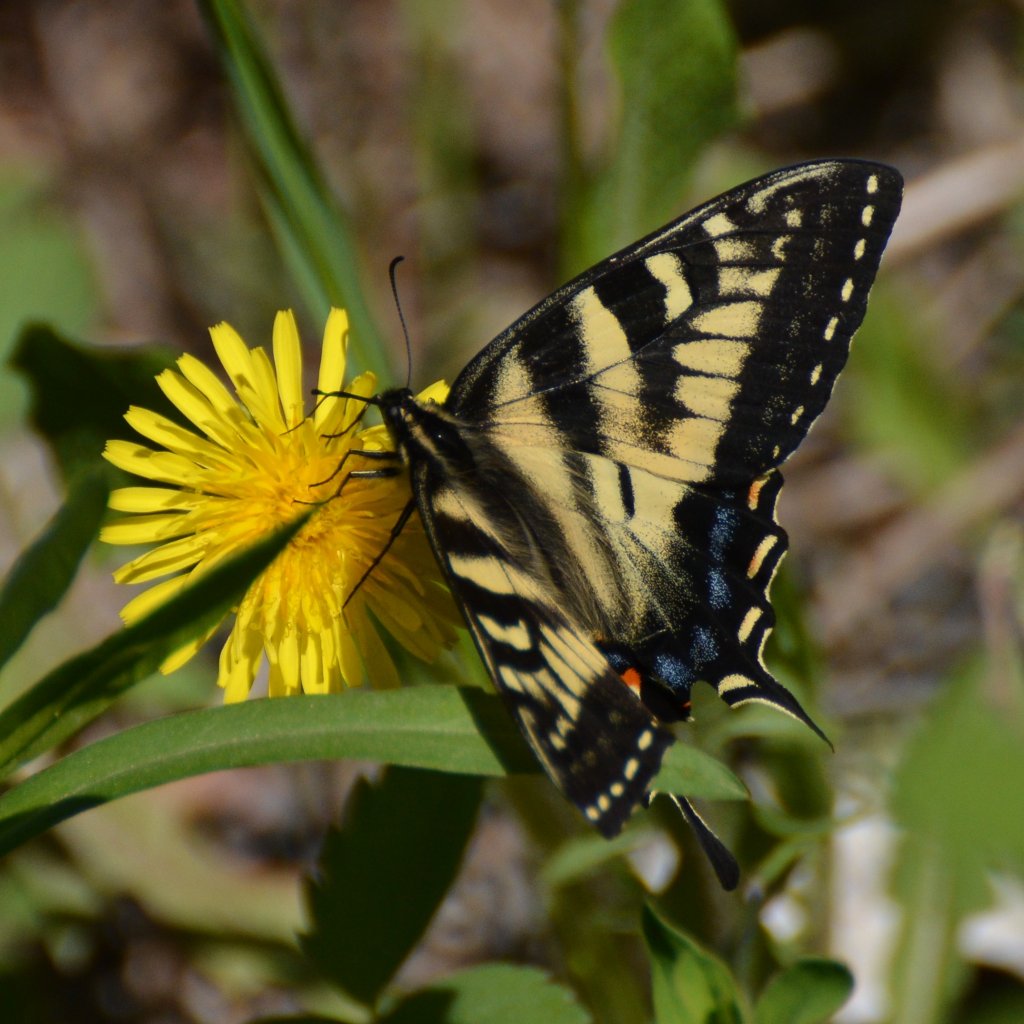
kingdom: Animalia
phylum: Arthropoda
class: Insecta
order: Lepidoptera
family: Papilionidae
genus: Pterourus
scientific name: Pterourus canadensis
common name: Canadian Tiger Swallowtail
